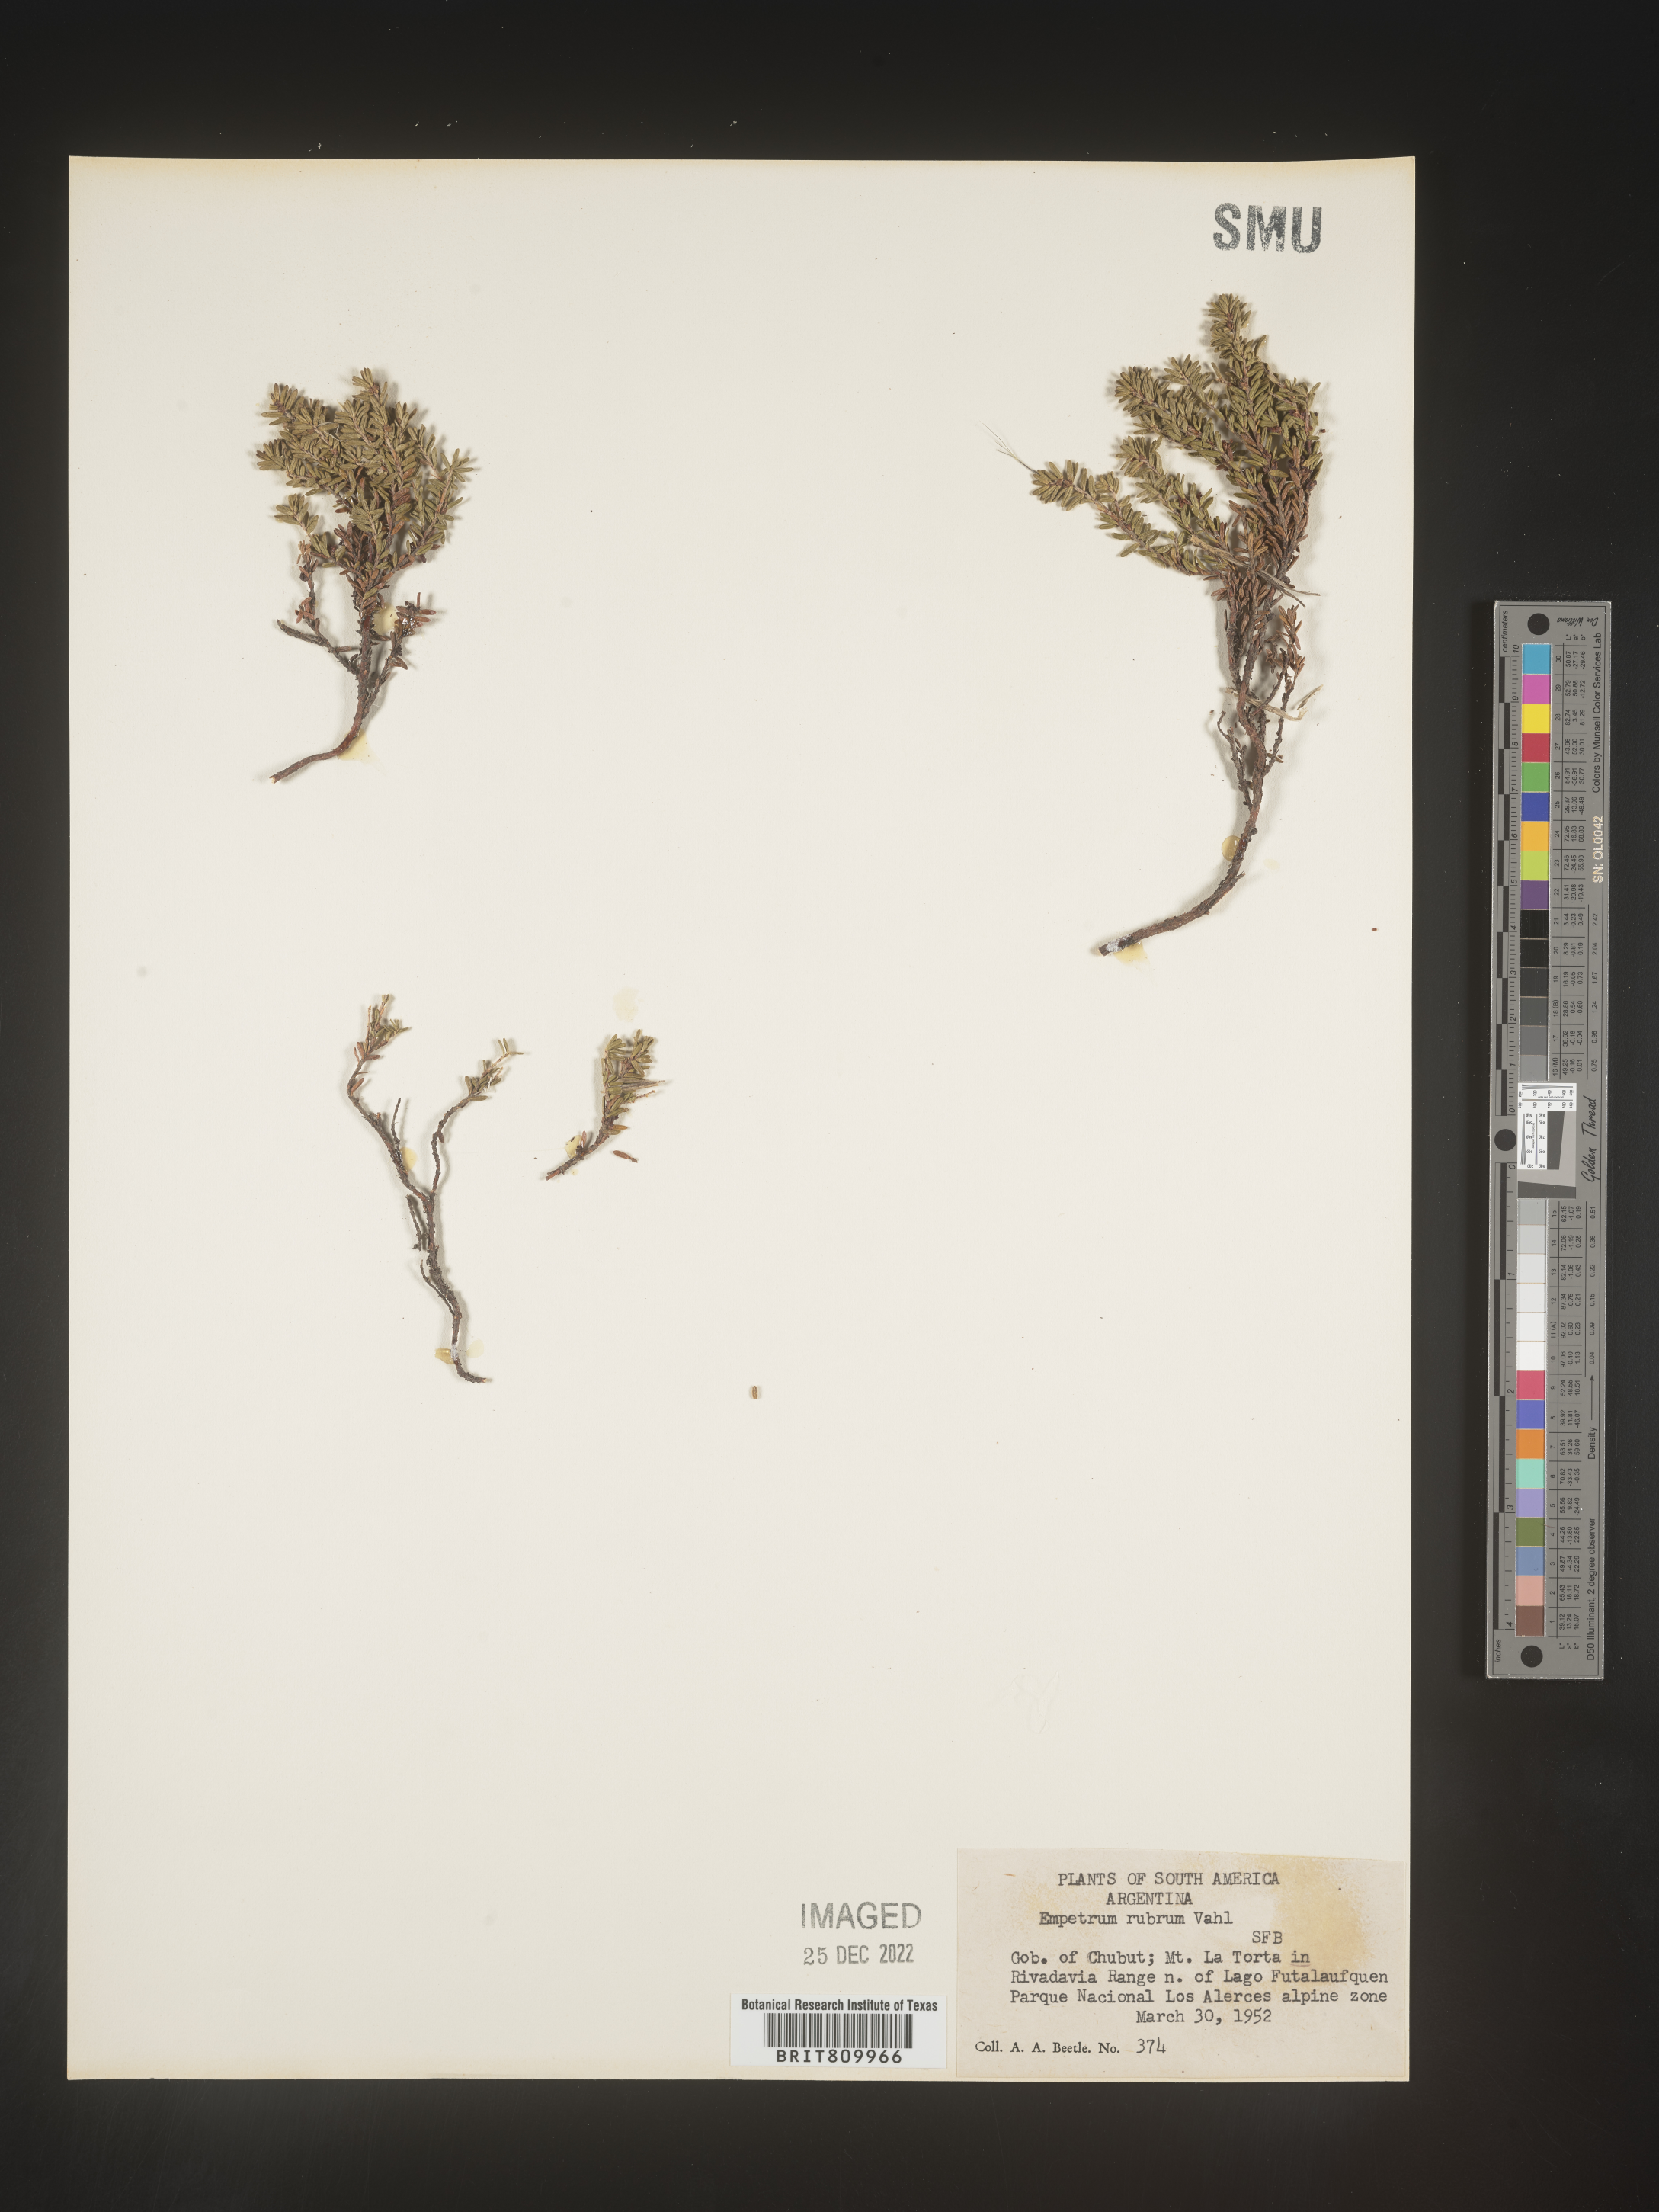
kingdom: Plantae
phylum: Tracheophyta
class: Magnoliopsida
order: Ericales
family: Ericaceae
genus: Empetrum
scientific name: Empetrum
